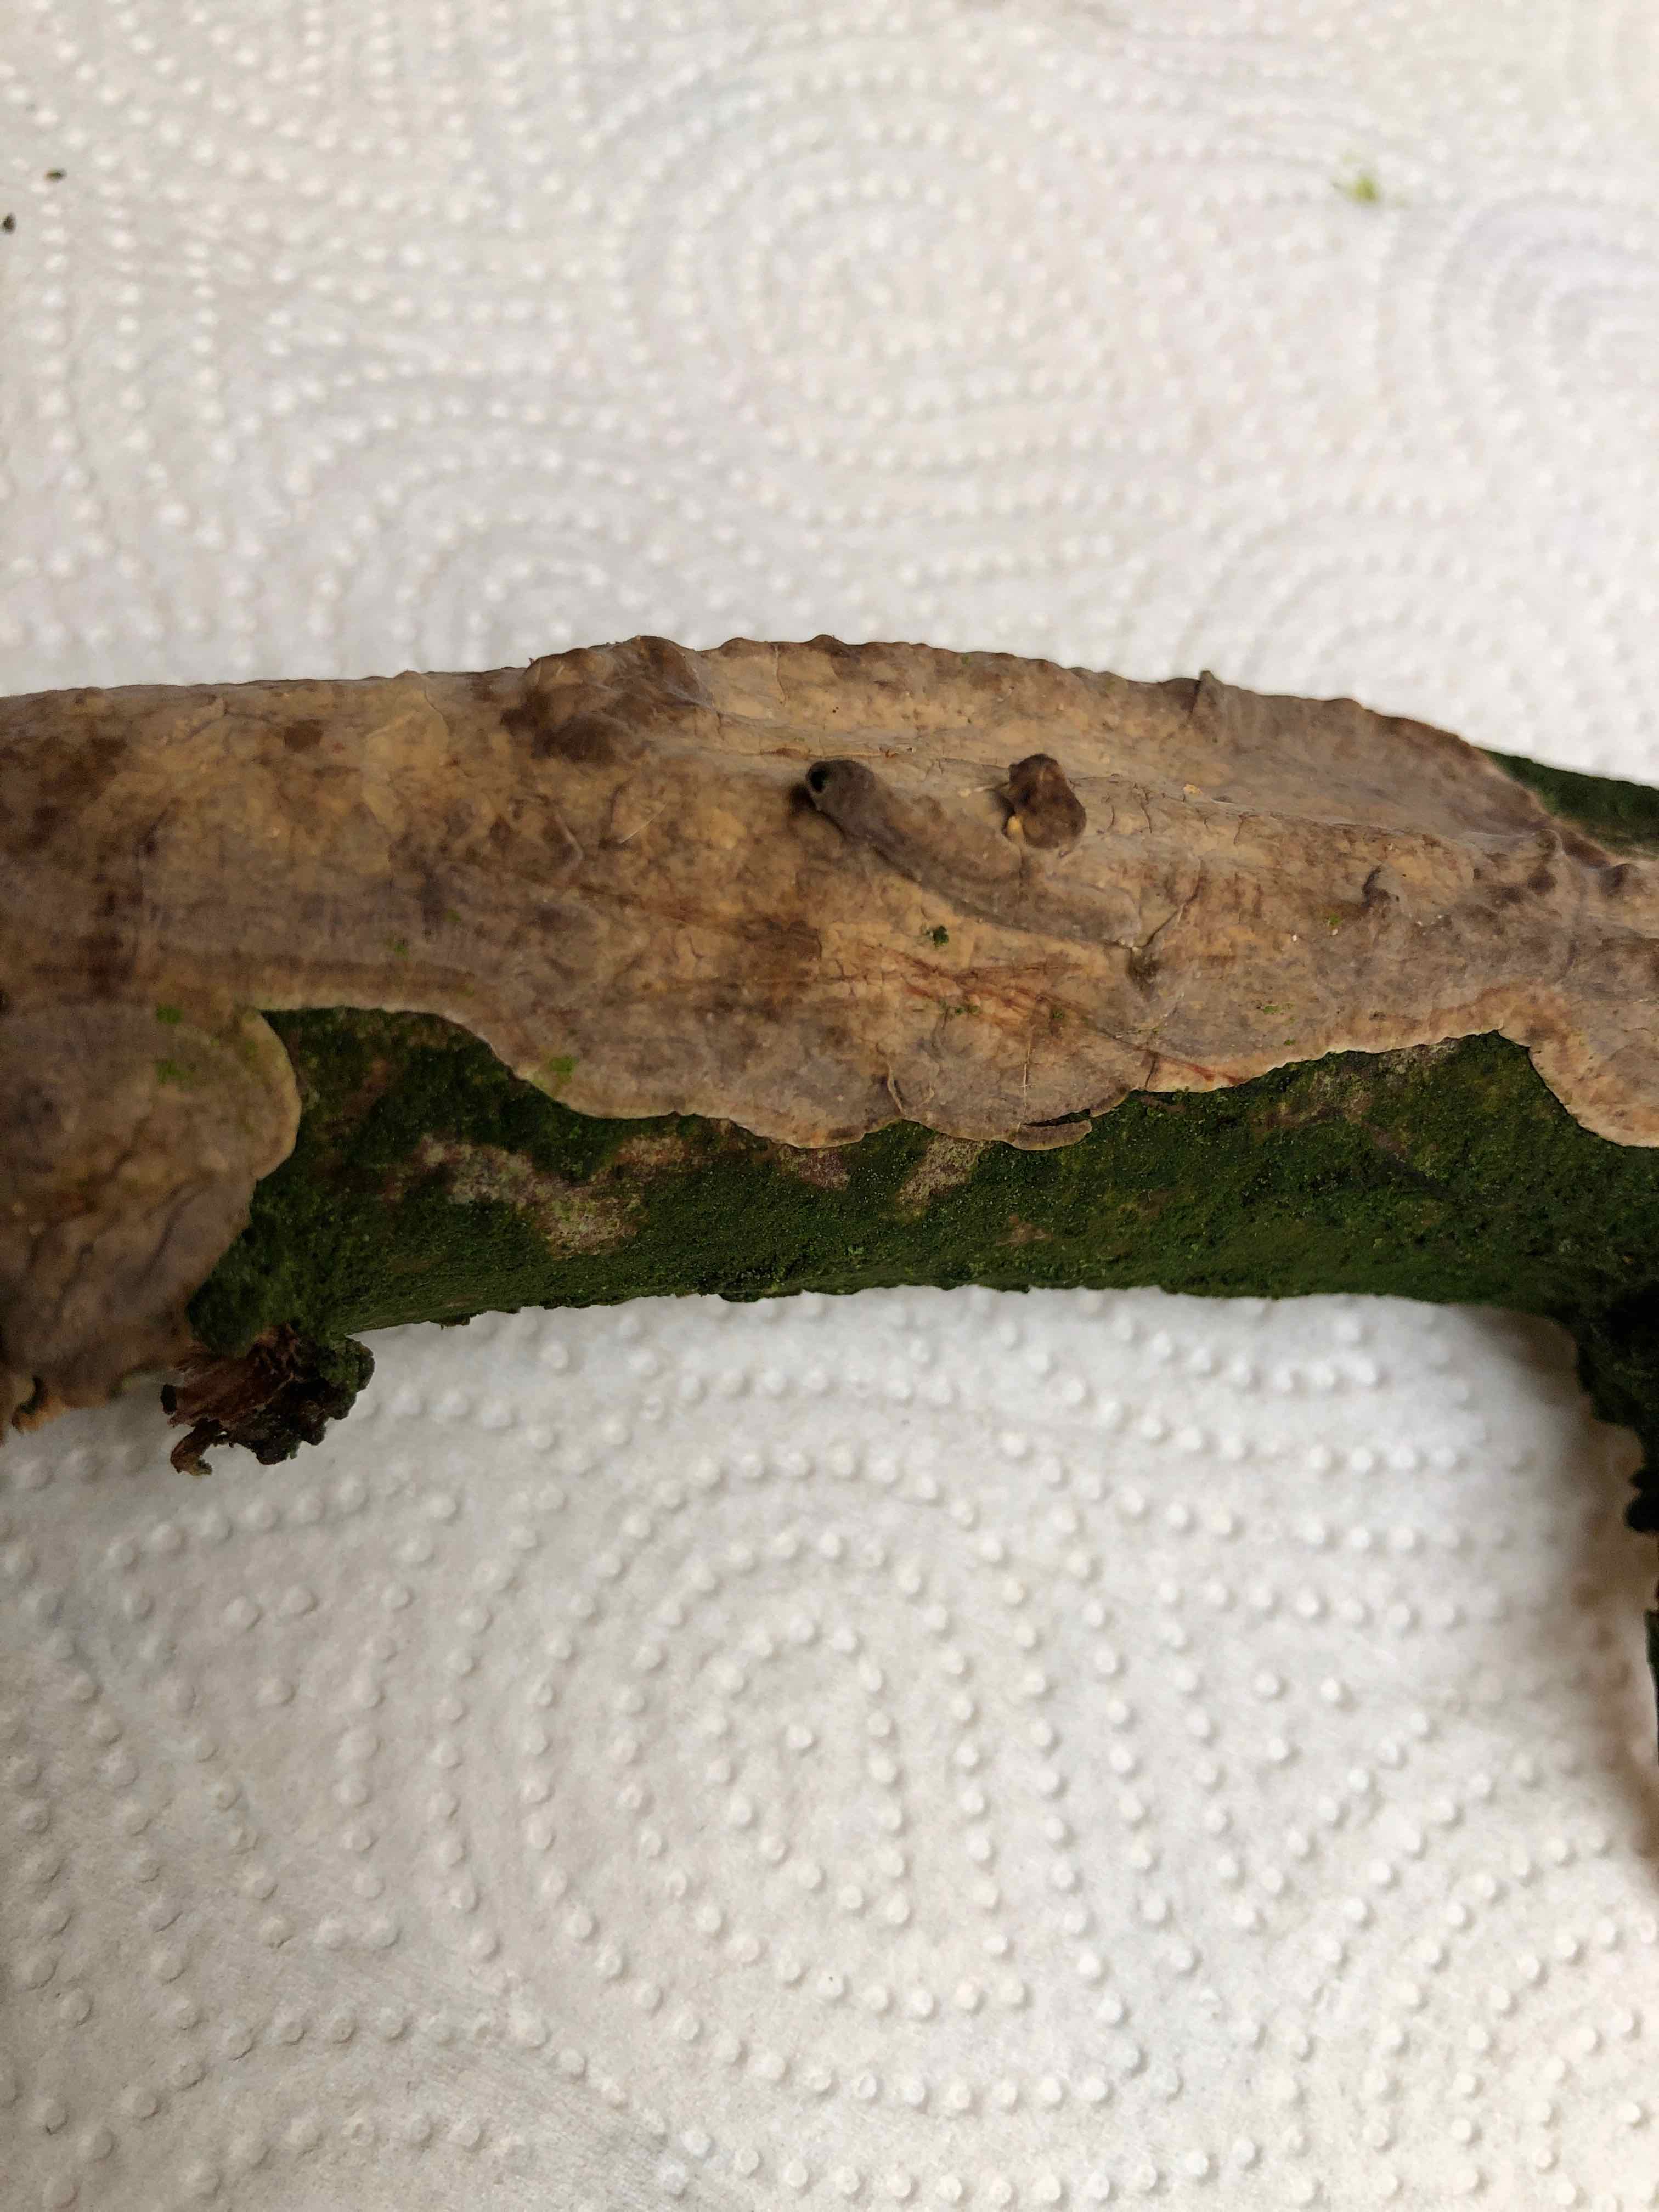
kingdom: Fungi
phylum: Basidiomycota
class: Agaricomycetes
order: Russulales
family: Stereaceae
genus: Stereum
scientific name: Stereum rugosum
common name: rynket lædersvamp
